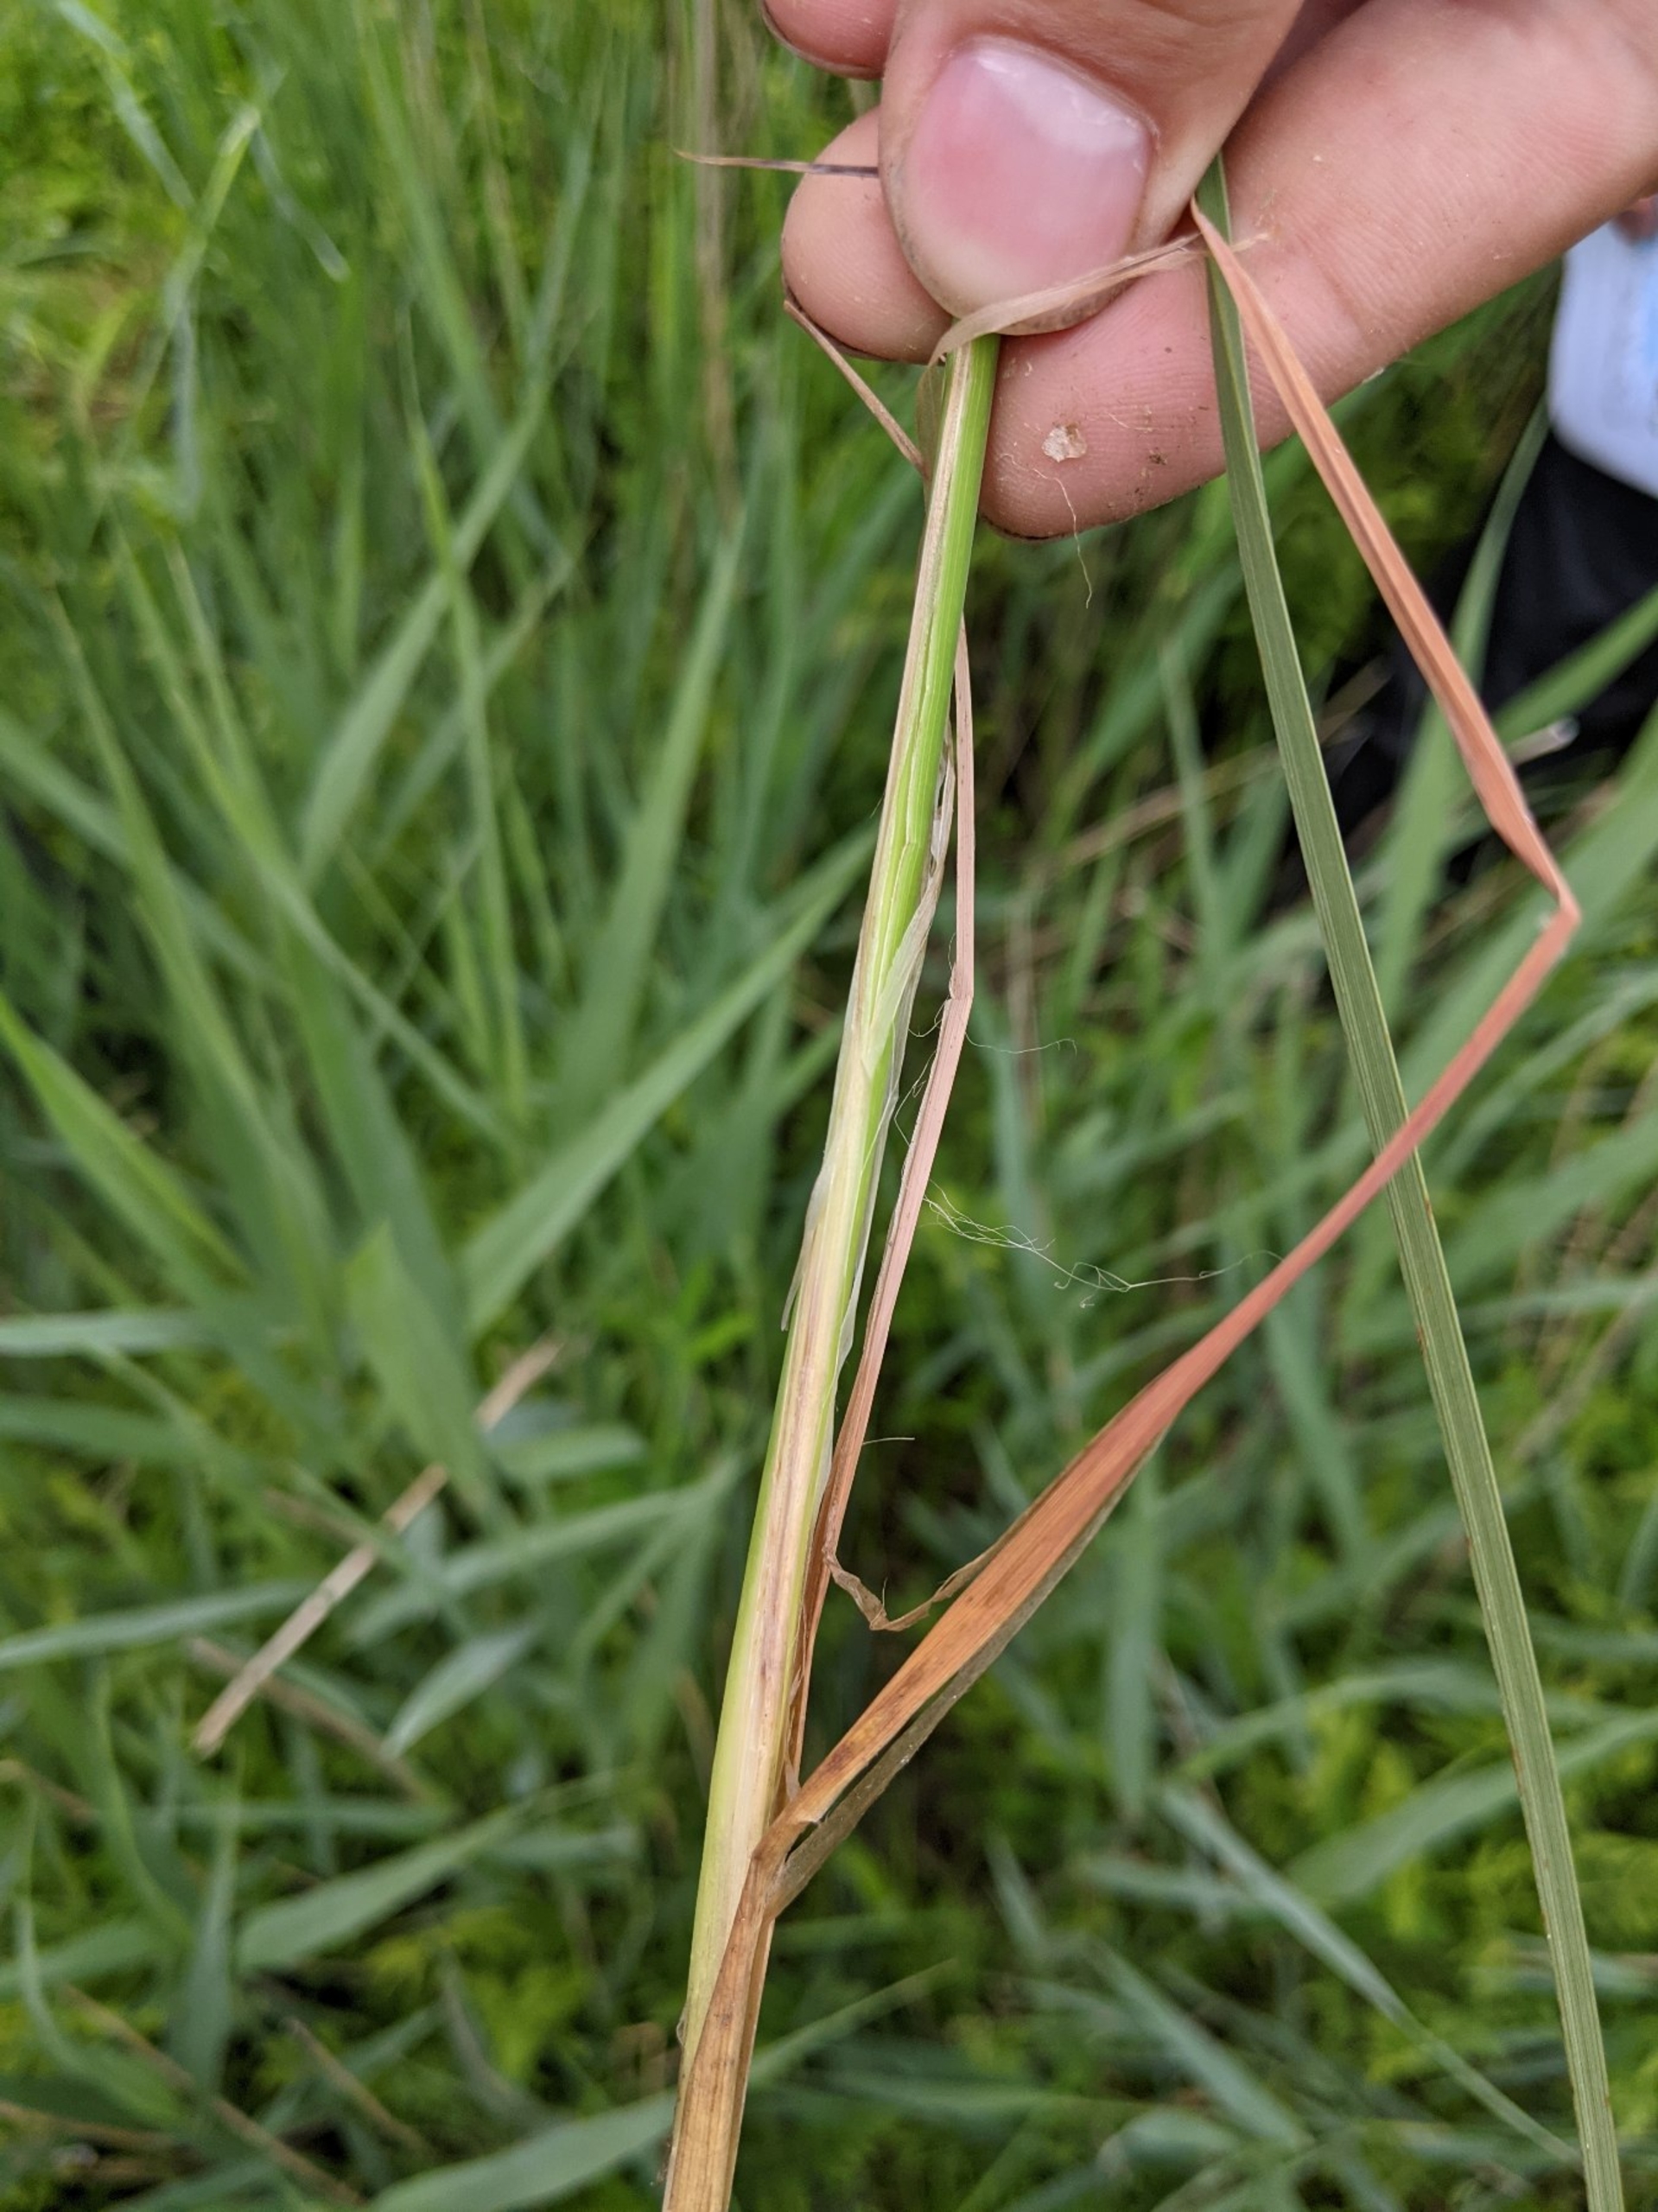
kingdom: Plantae
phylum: Tracheophyta
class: Liliopsida
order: Poales
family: Cyperaceae
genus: Carex
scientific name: Carex elata
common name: Stiv star
